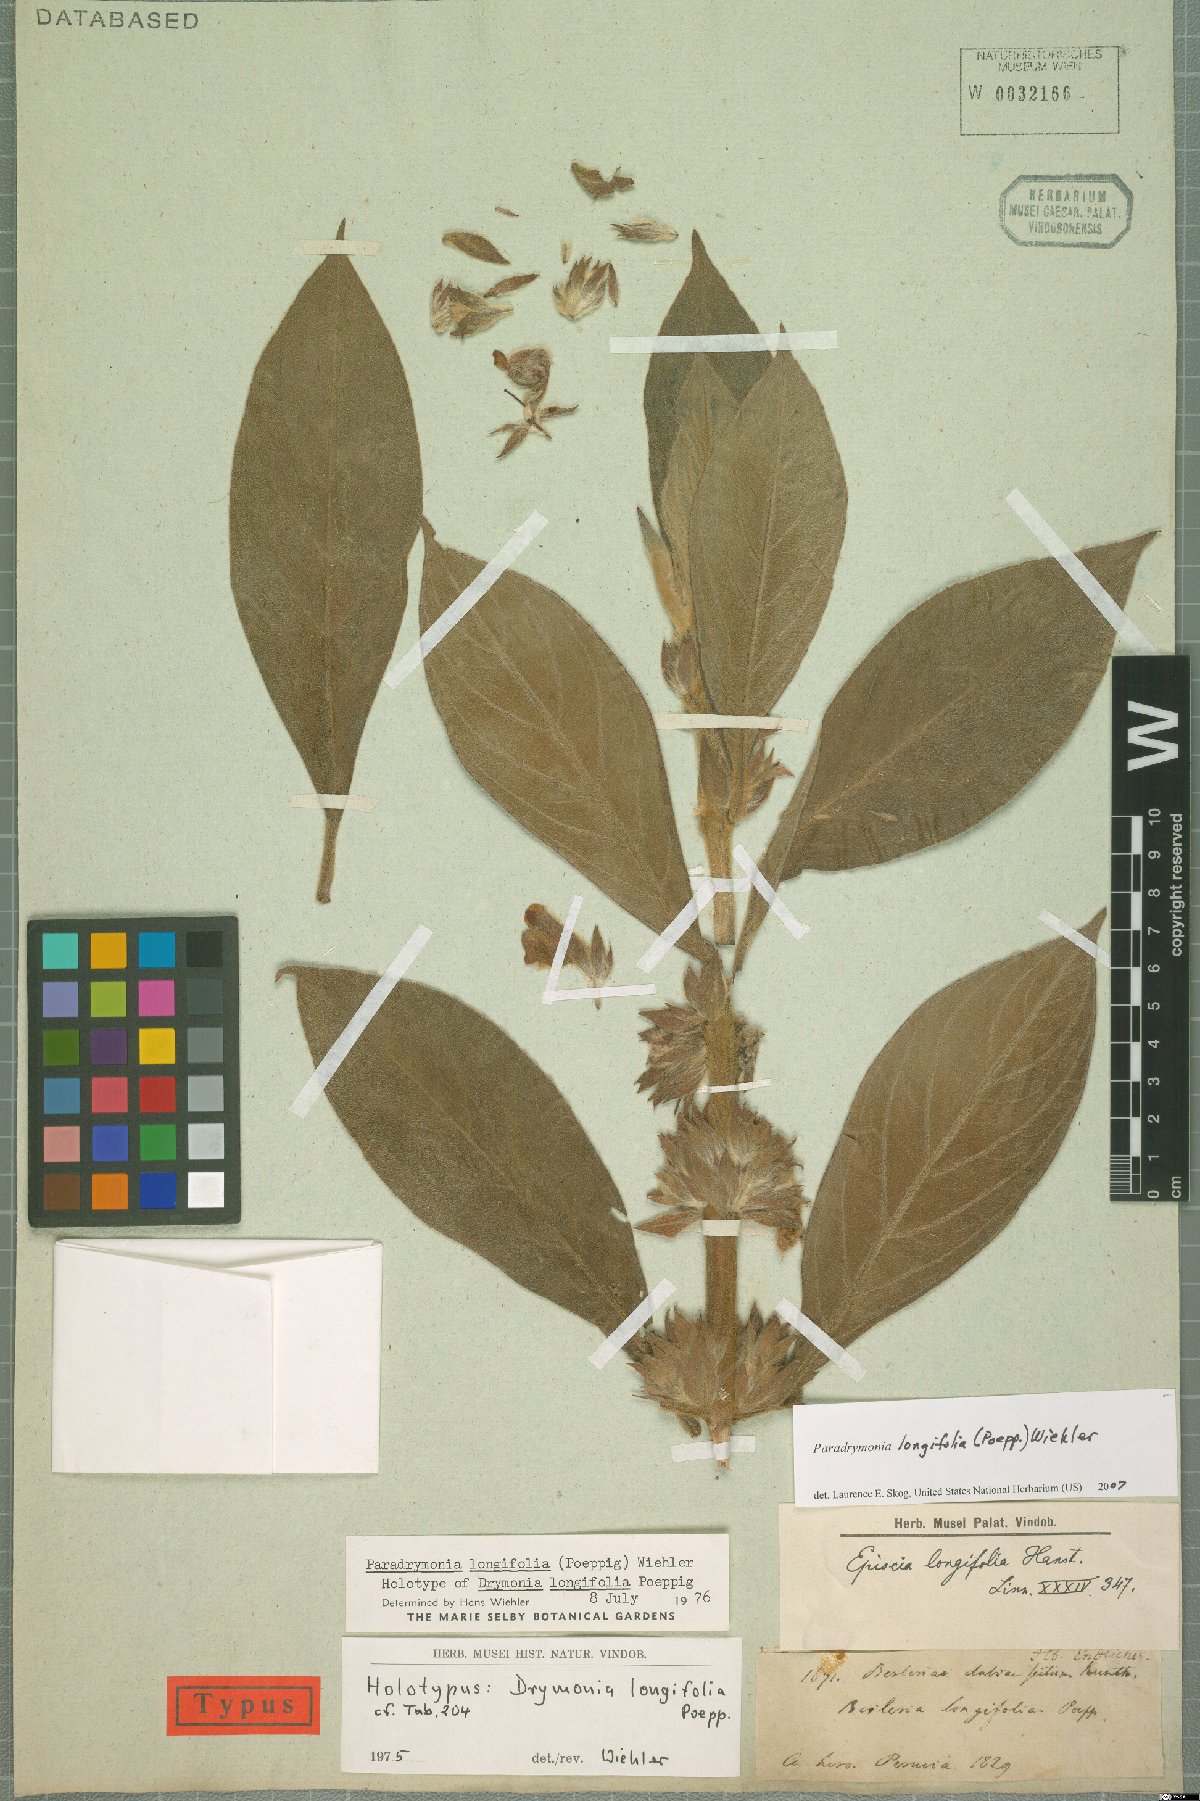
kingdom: Plantae
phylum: Tracheophyta
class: Magnoliopsida
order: Lamiales
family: Gesneriaceae
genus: Paradrymonia
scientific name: Paradrymonia longifolia
